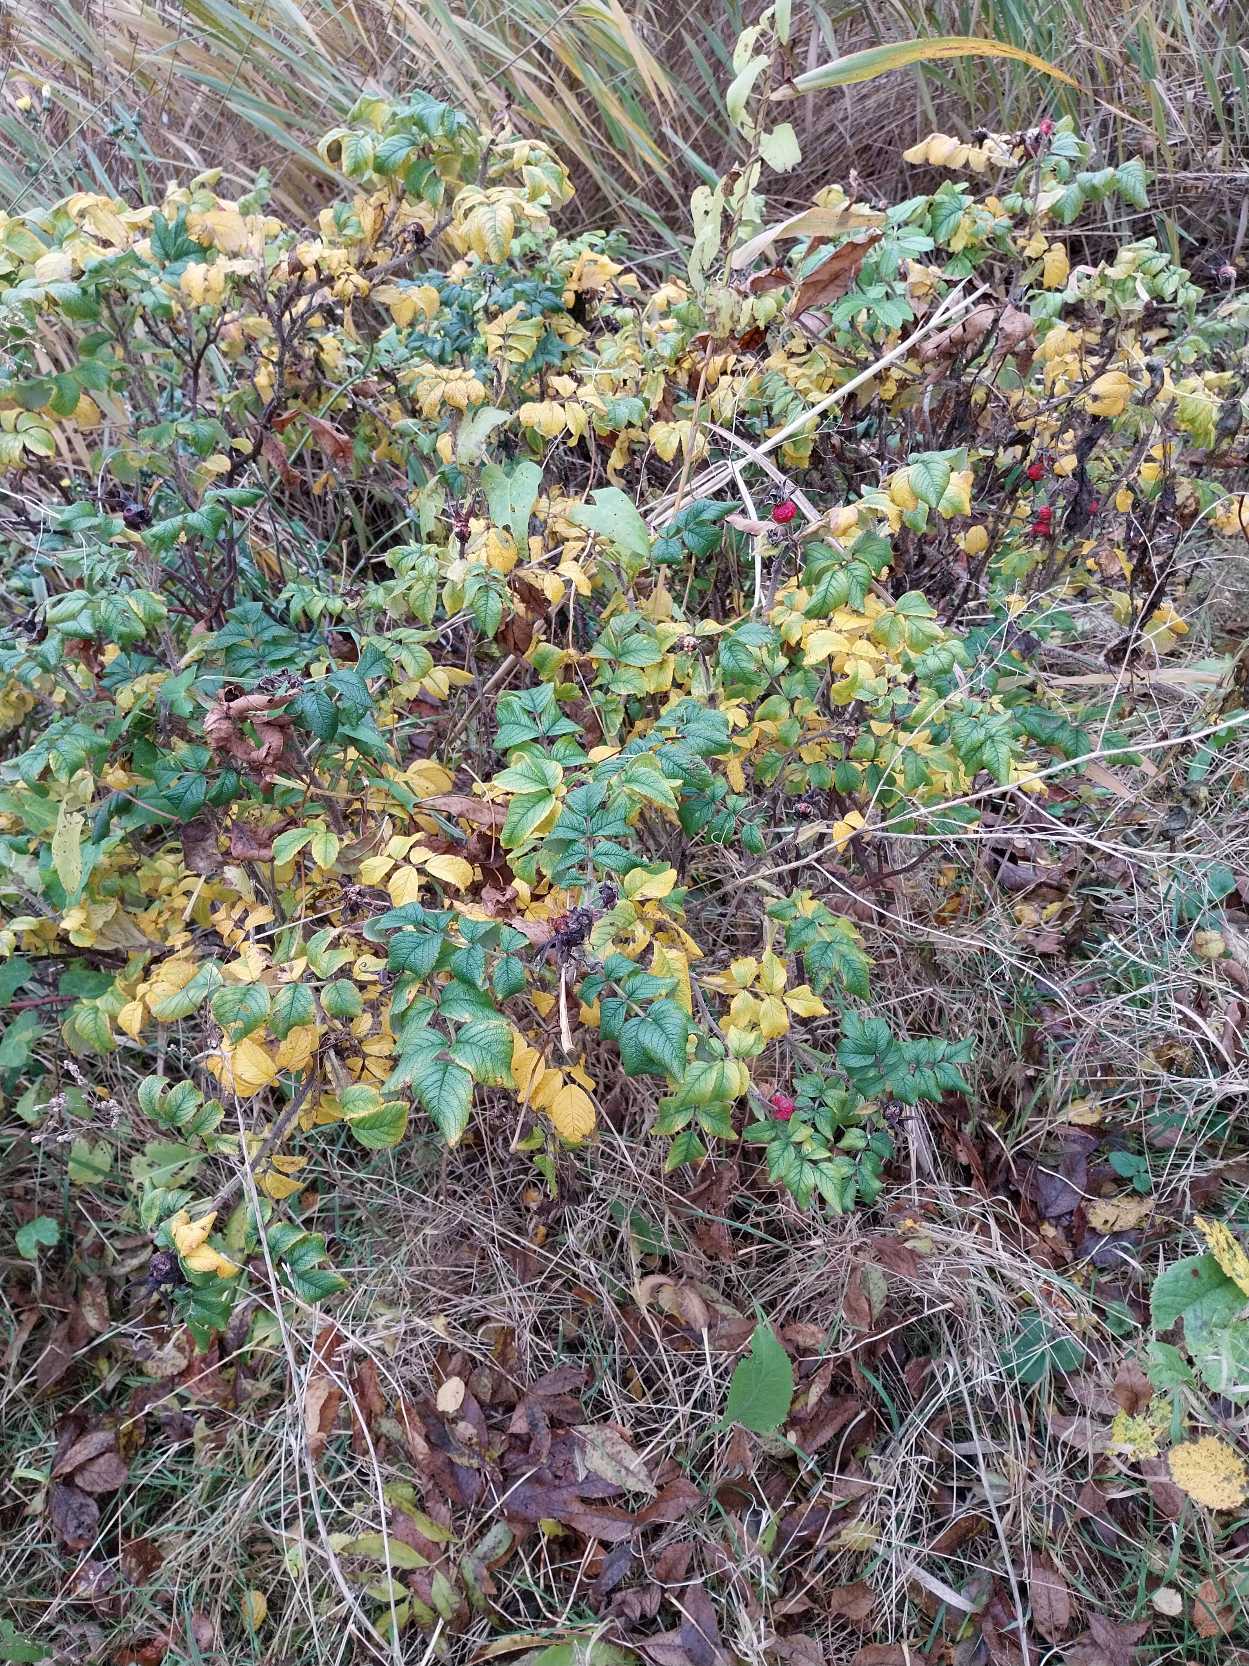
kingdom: Plantae
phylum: Tracheophyta
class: Magnoliopsida
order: Rosales
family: Rosaceae
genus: Rosa
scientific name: Rosa rugosa
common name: Rynket rose
